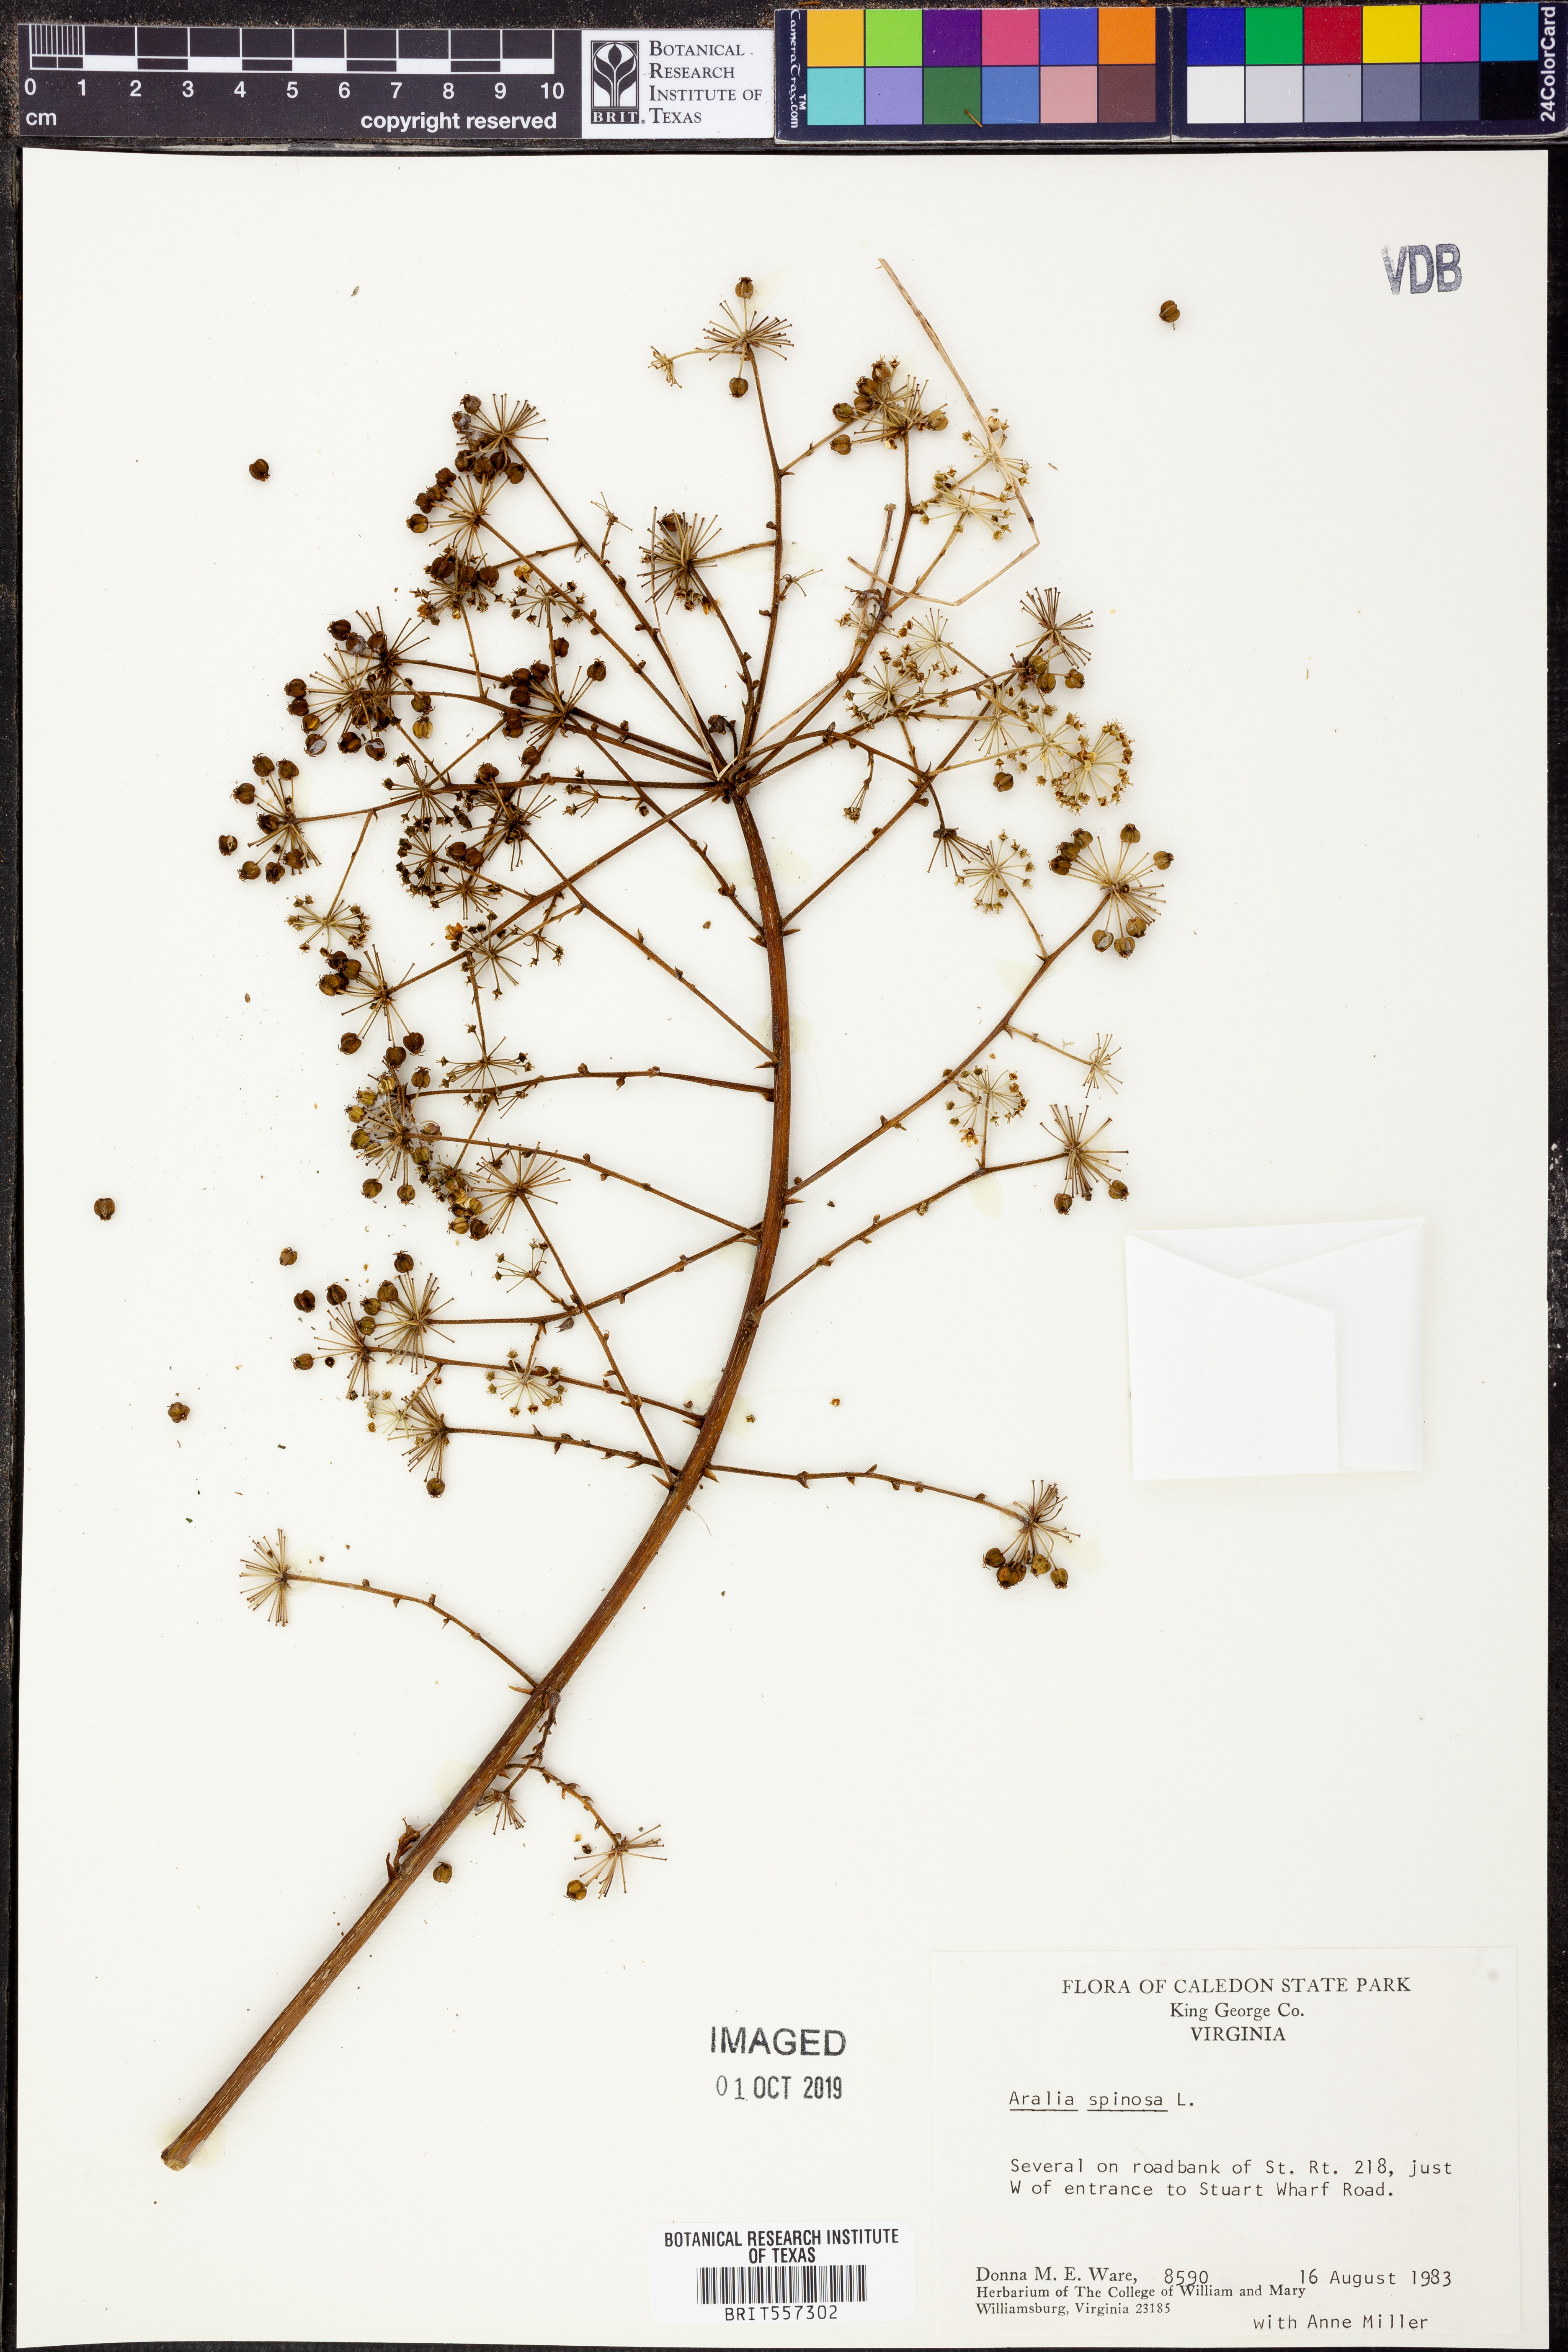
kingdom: Plantae
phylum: Tracheophyta
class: Magnoliopsida
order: Apiales
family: Araliaceae
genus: Aralia
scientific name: Aralia spinosa
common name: Hercules'-club
